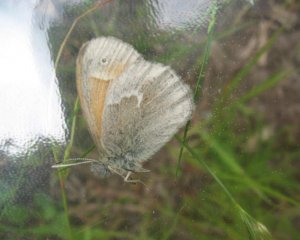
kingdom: Animalia
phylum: Arthropoda
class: Insecta
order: Lepidoptera
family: Nymphalidae
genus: Coenonympha
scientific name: Coenonympha tullia
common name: Large Heath
